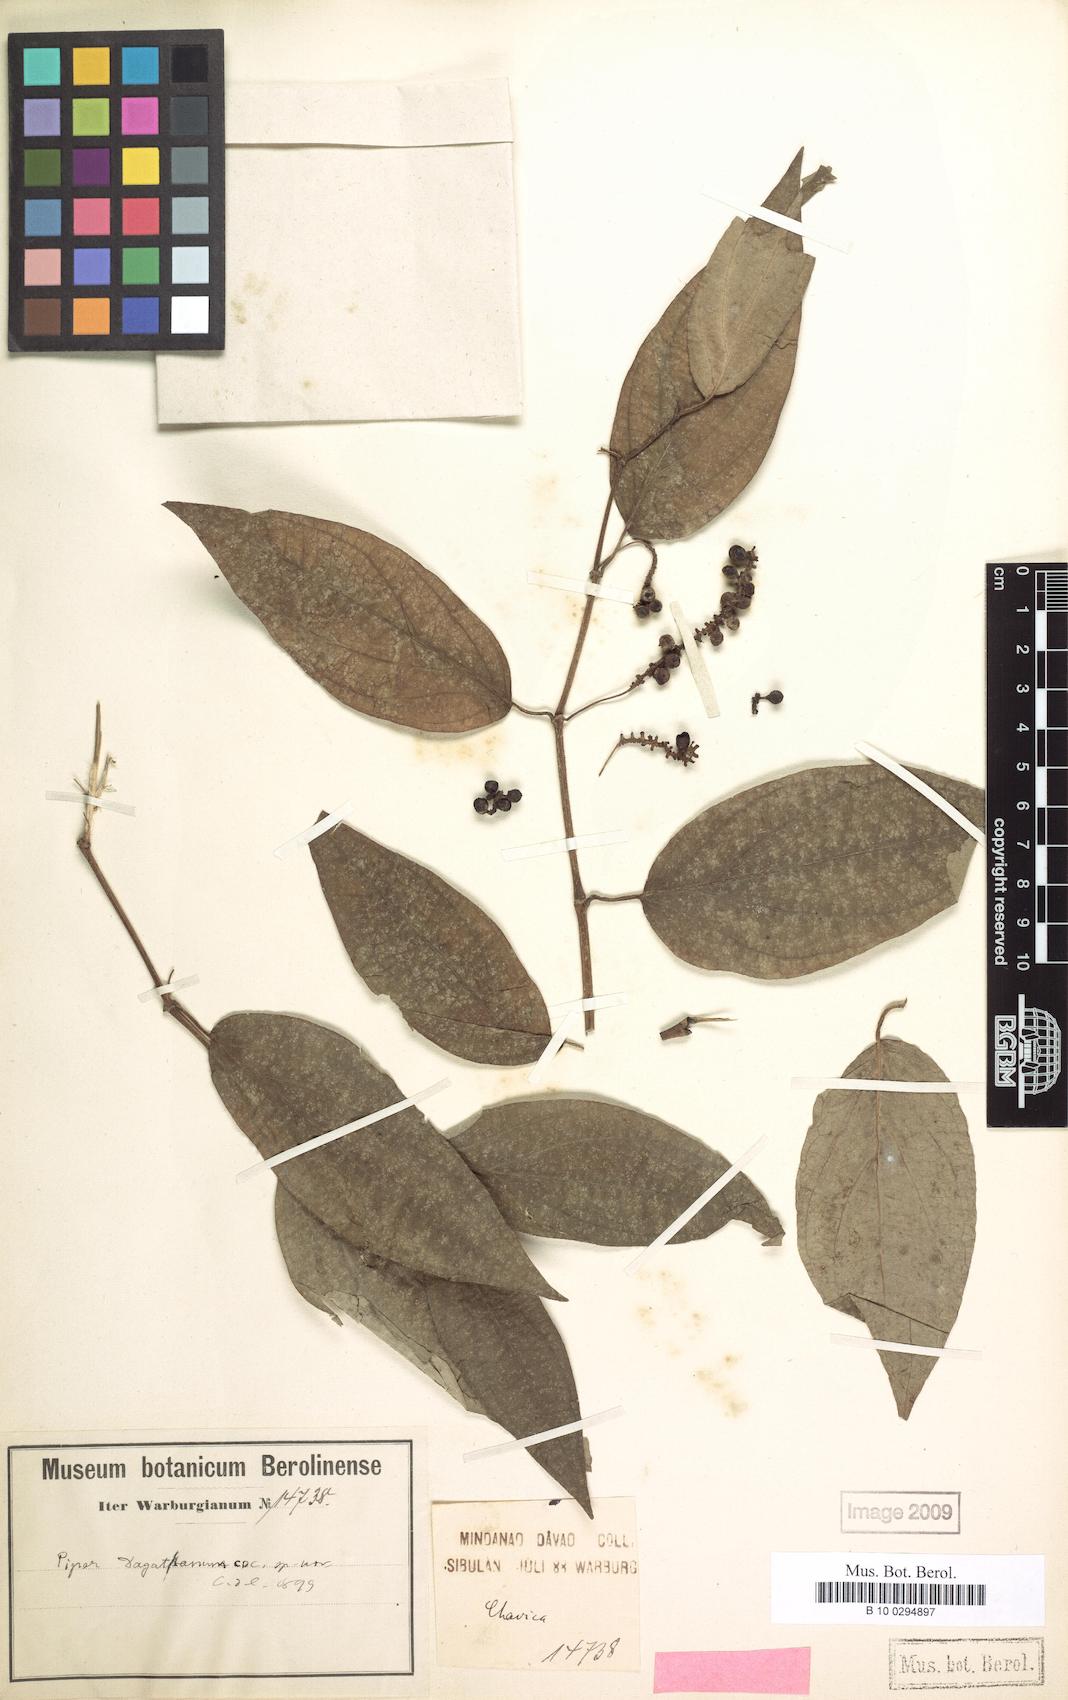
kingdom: Plantae
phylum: Tracheophyta
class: Magnoliopsida
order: Piperales
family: Piperaceae
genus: Piper
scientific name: Piper lanatum
